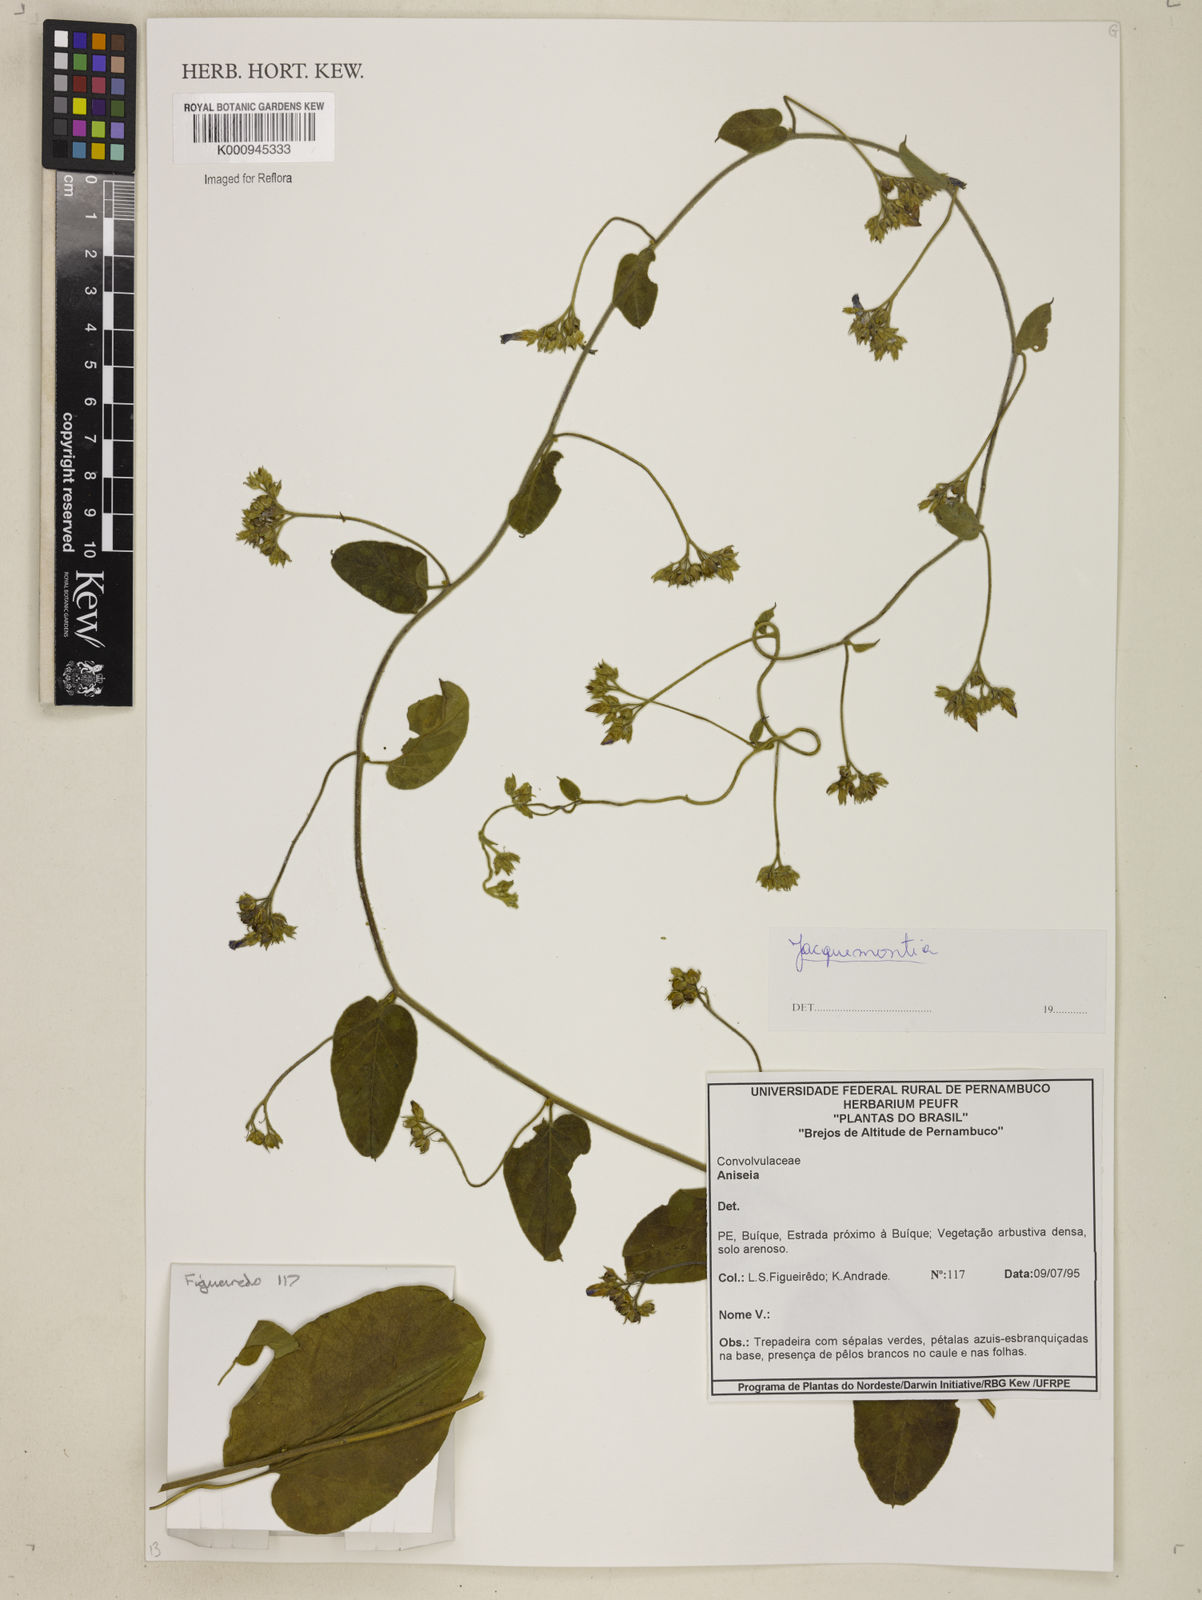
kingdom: Plantae
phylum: Tracheophyta
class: Magnoliopsida
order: Solanales
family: Convolvulaceae
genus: Jacquemontia
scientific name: Jacquemontia
